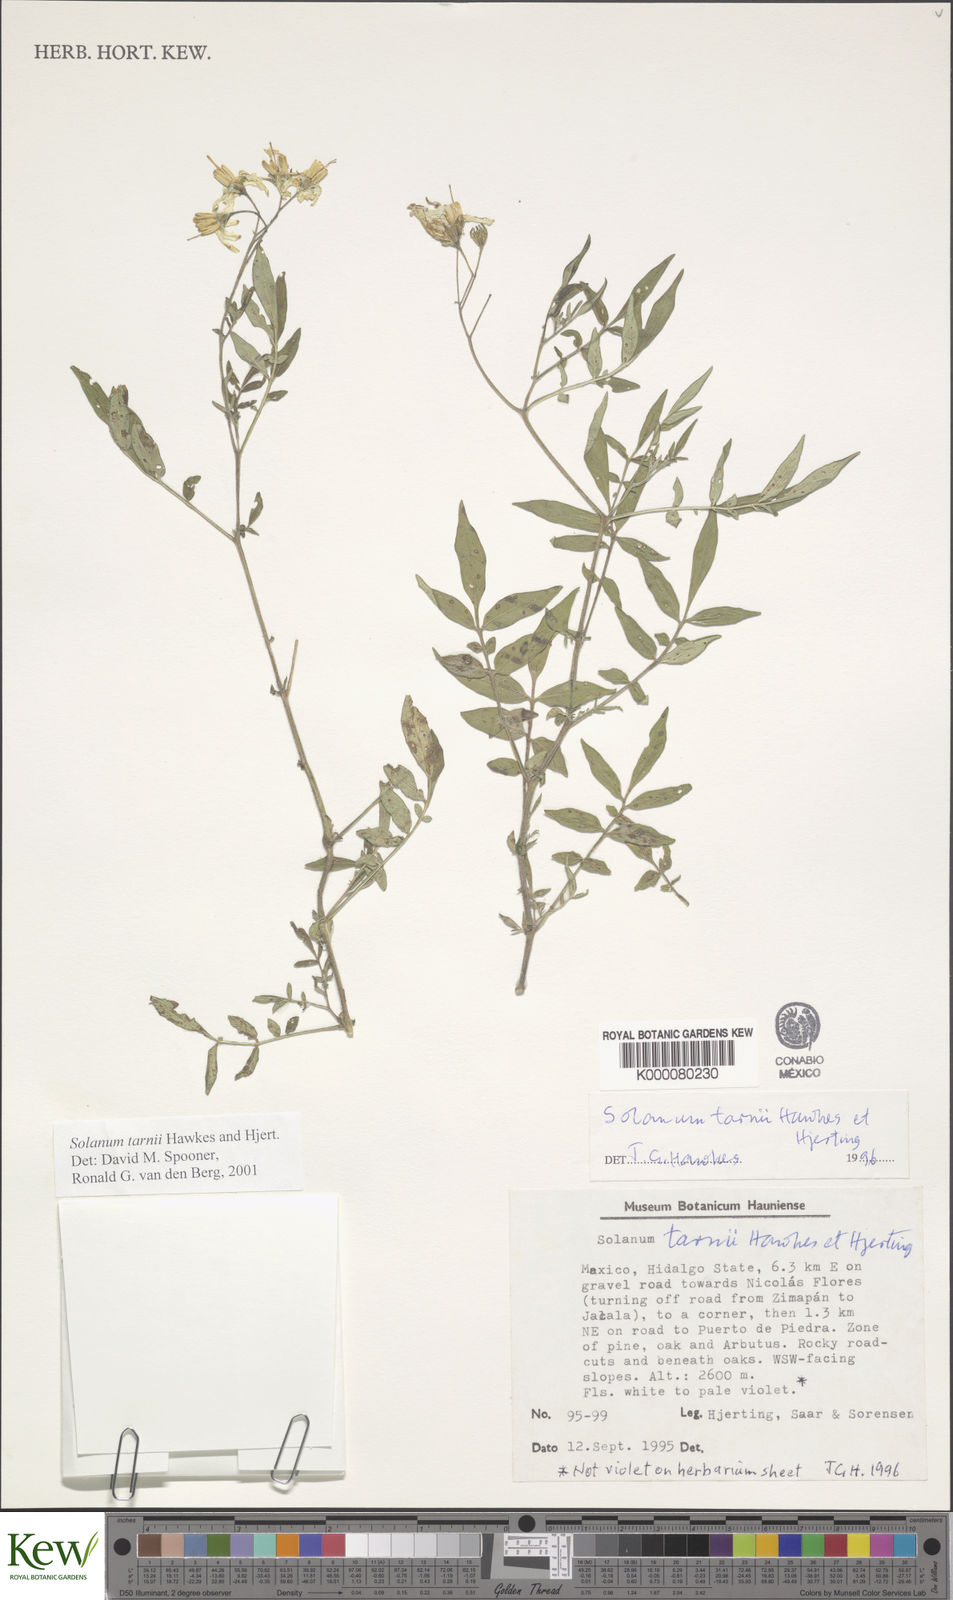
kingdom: Plantae
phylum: Tracheophyta
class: Magnoliopsida
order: Solanales
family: Solanaceae
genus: Solanum
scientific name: Solanum tarnii
